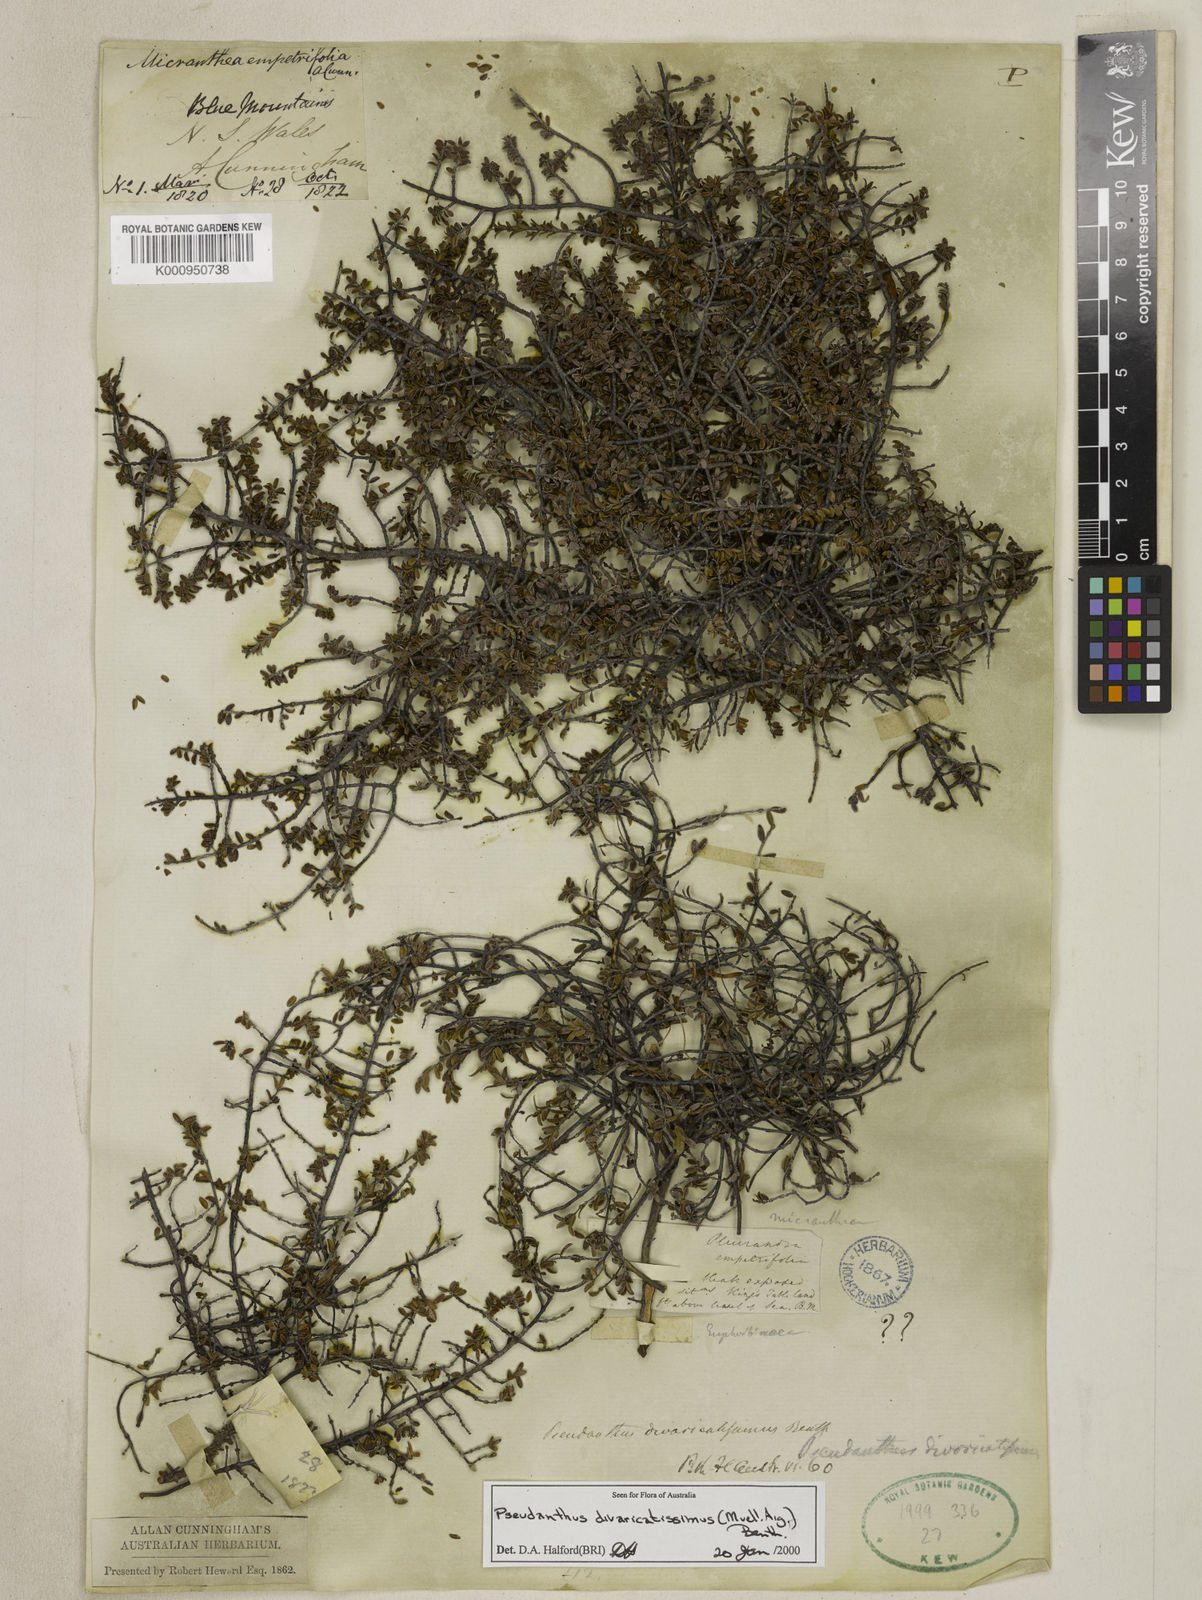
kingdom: Plantae
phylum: Tracheophyta
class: Magnoliopsida
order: Malpighiales
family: Picrodendraceae
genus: Pseudanthus
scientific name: Pseudanthus
